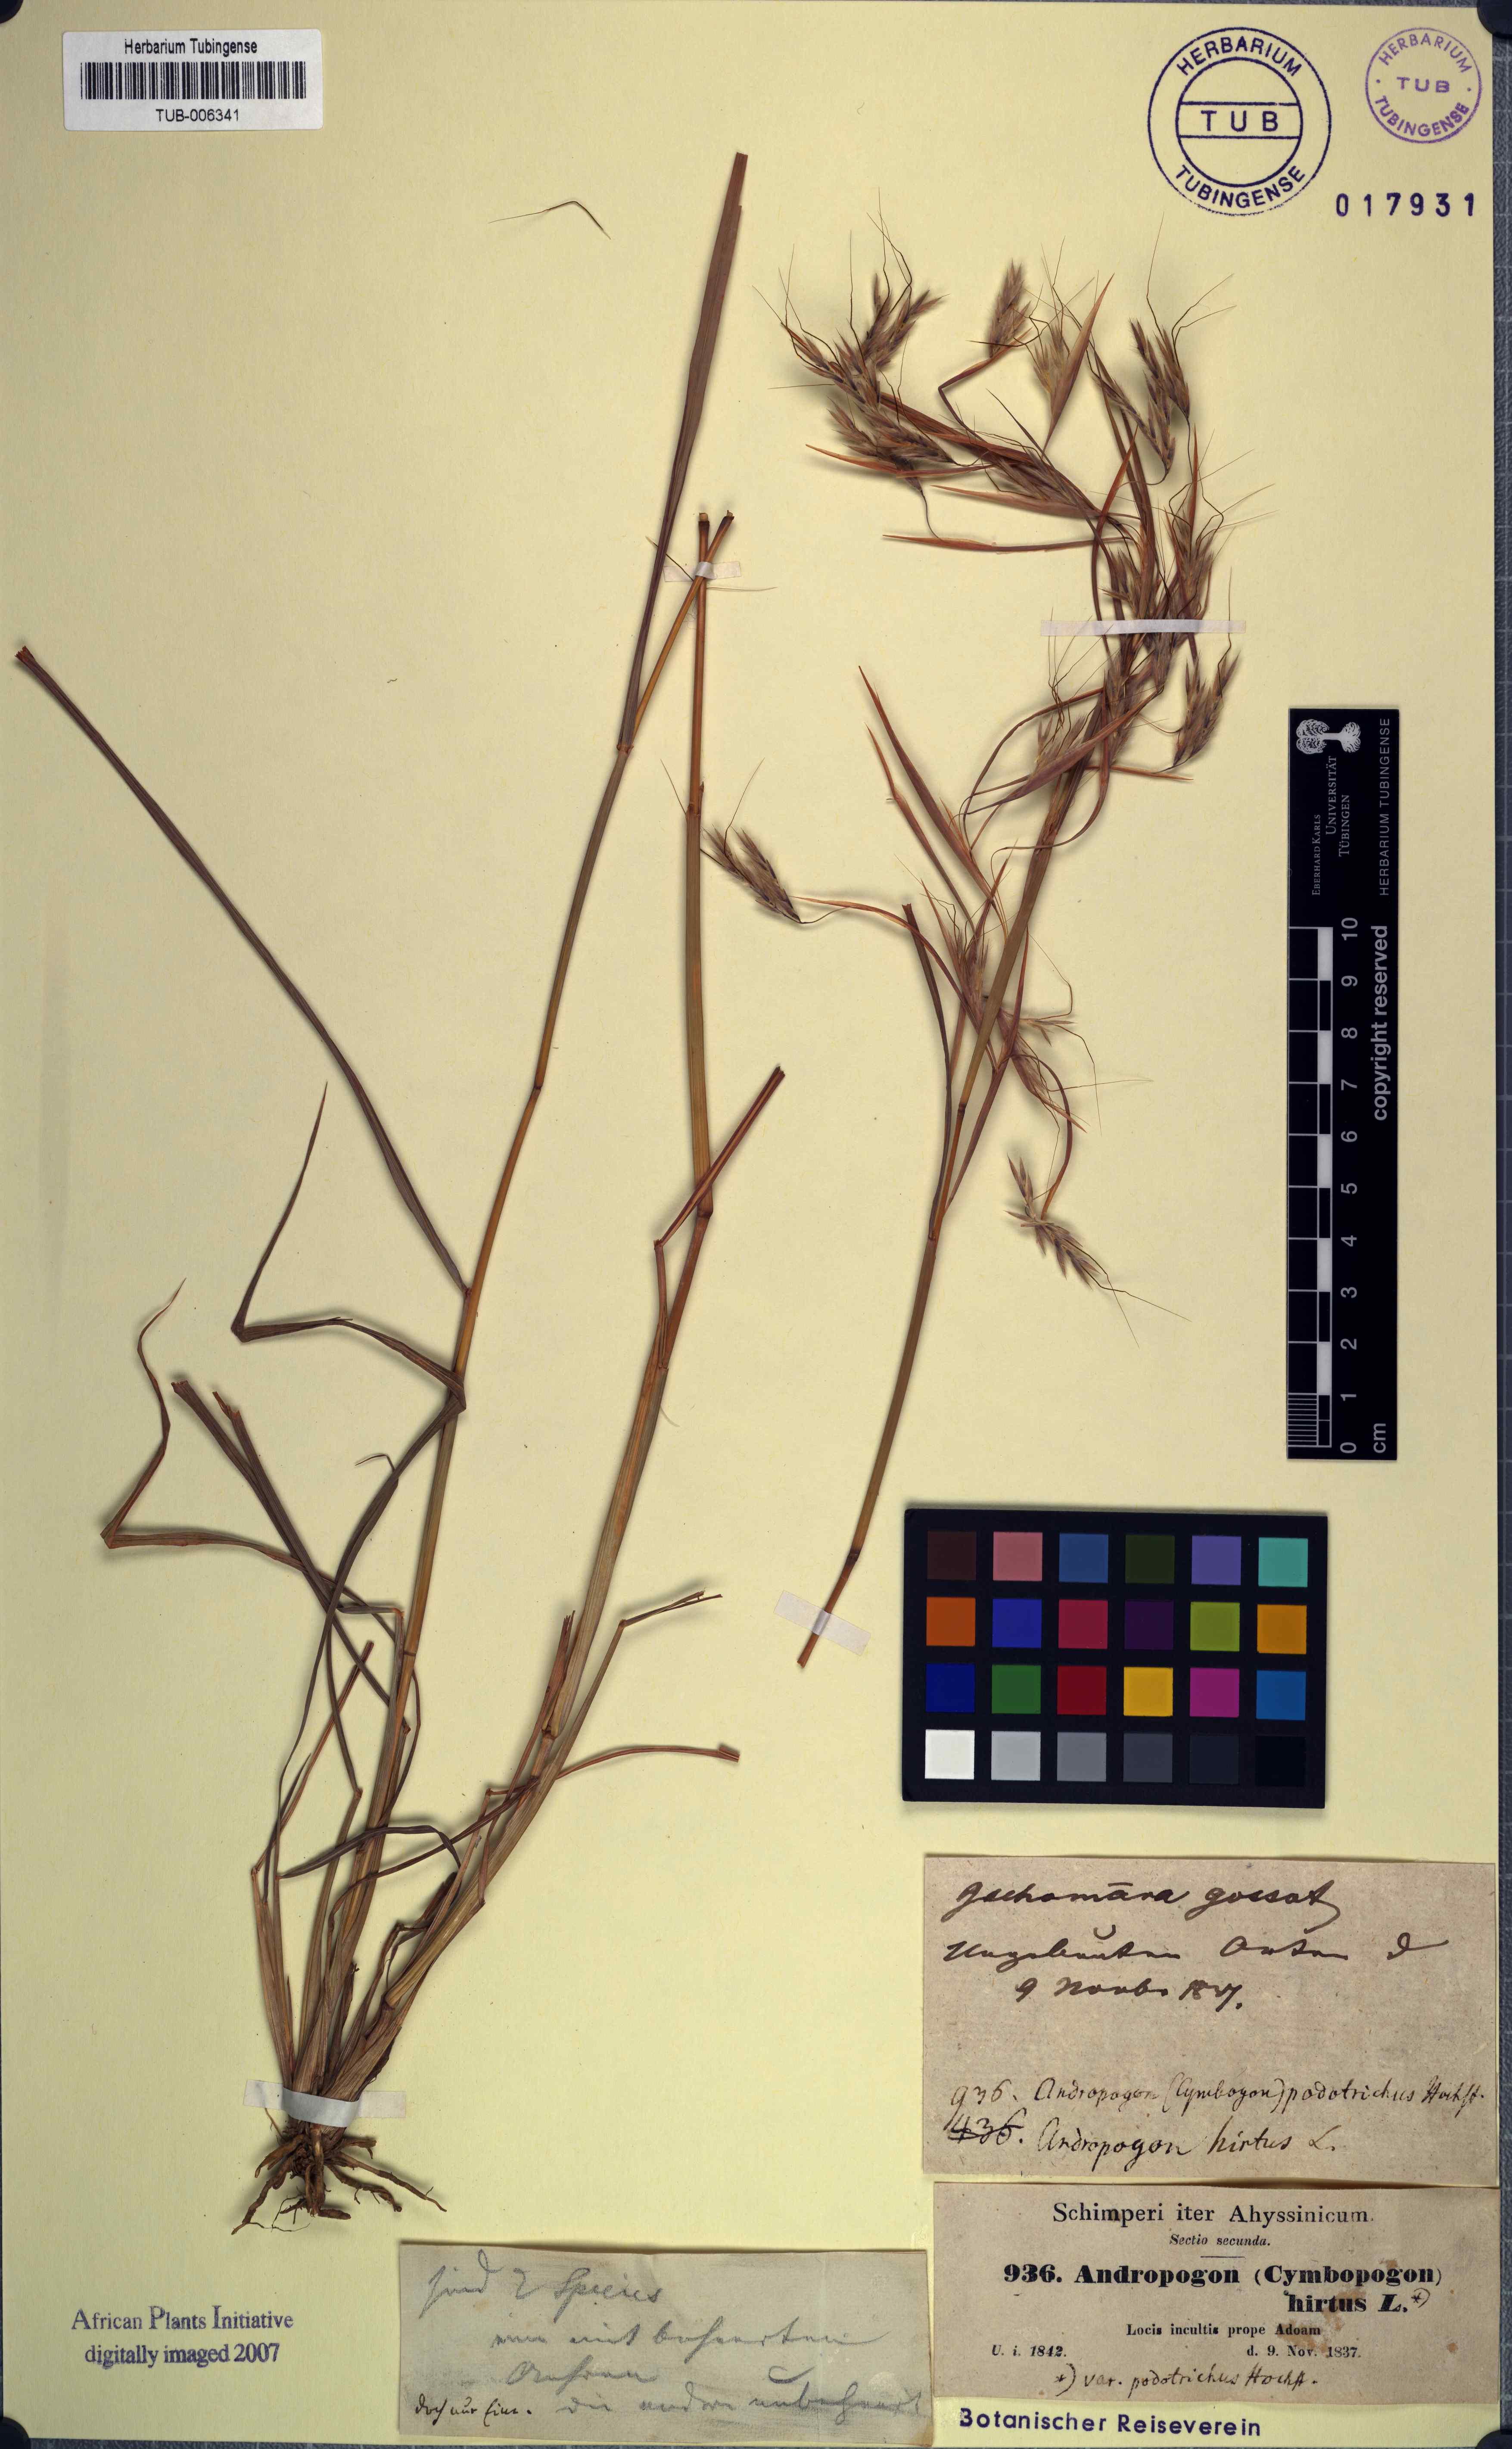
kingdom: Plantae
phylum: Tracheophyta
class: Liliopsida
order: Poales
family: Poaceae
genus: Hyparrhenia
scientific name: Hyparrhenia hirta
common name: Thatching grass
